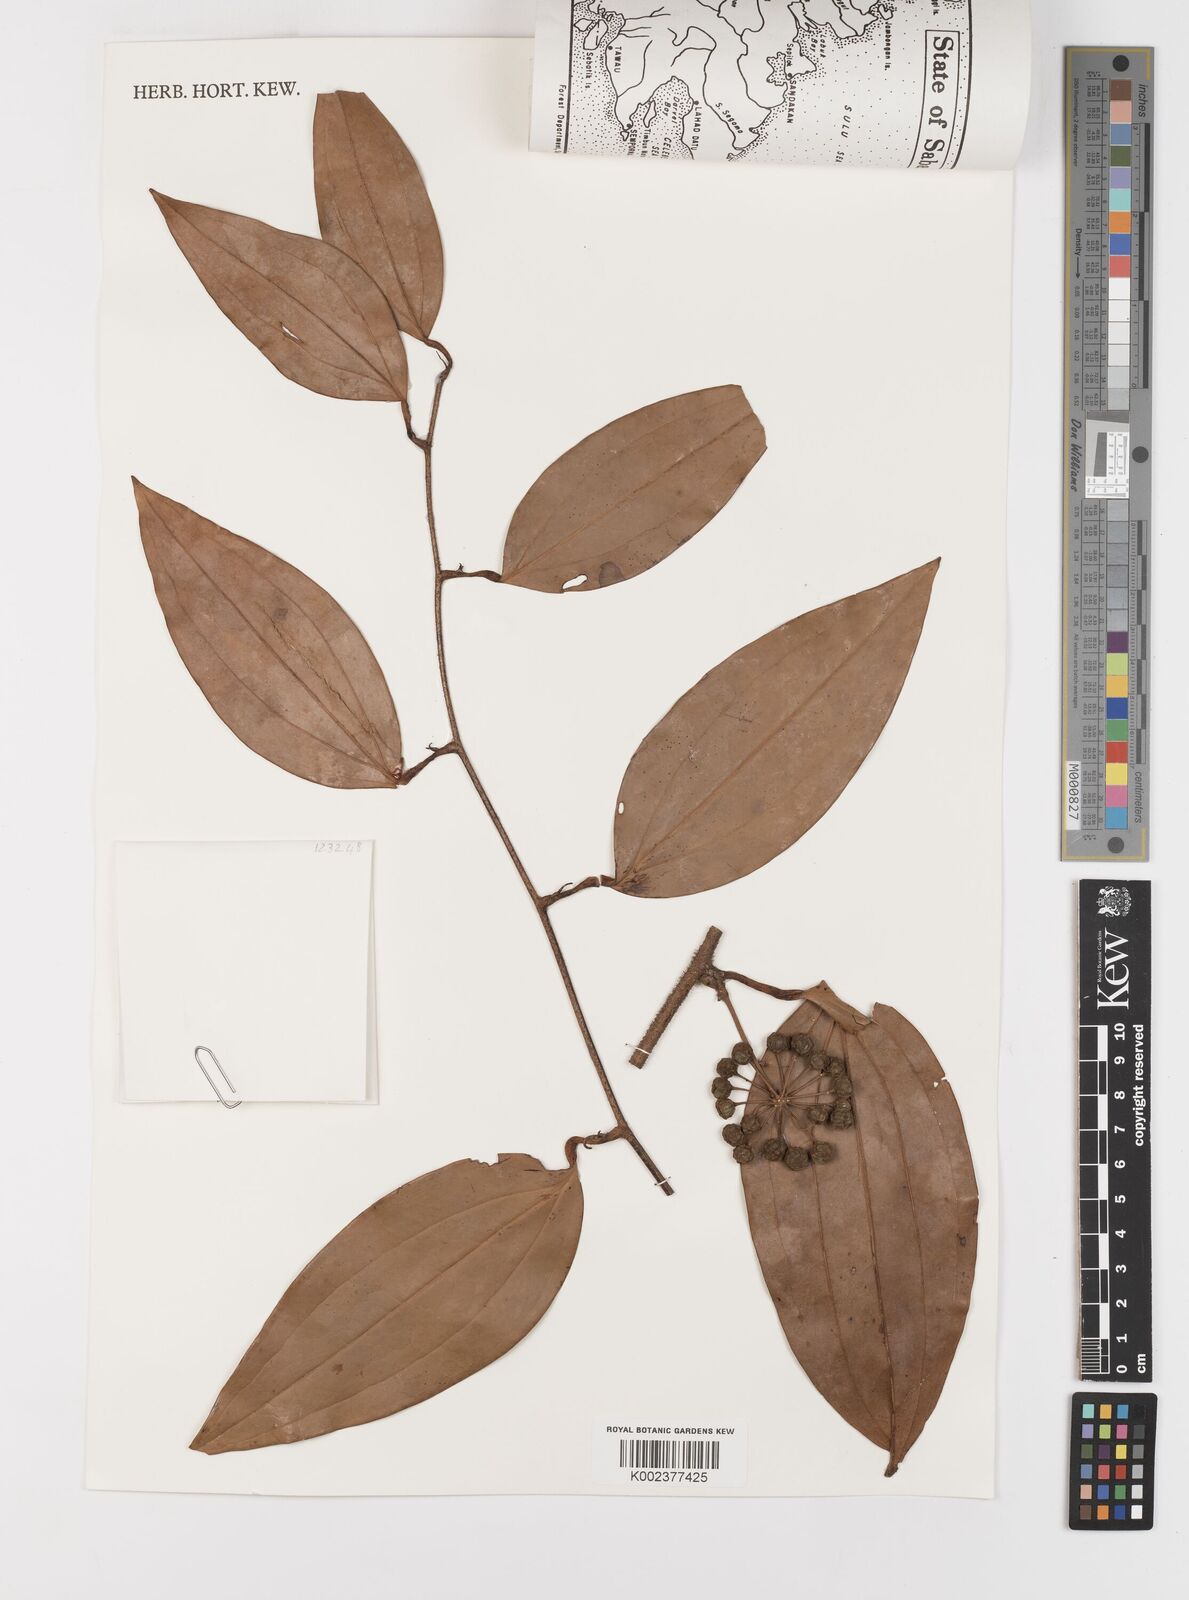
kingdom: Plantae
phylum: Tracheophyta
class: Liliopsida
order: Liliales
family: Smilacaceae
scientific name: Smilacaceae
